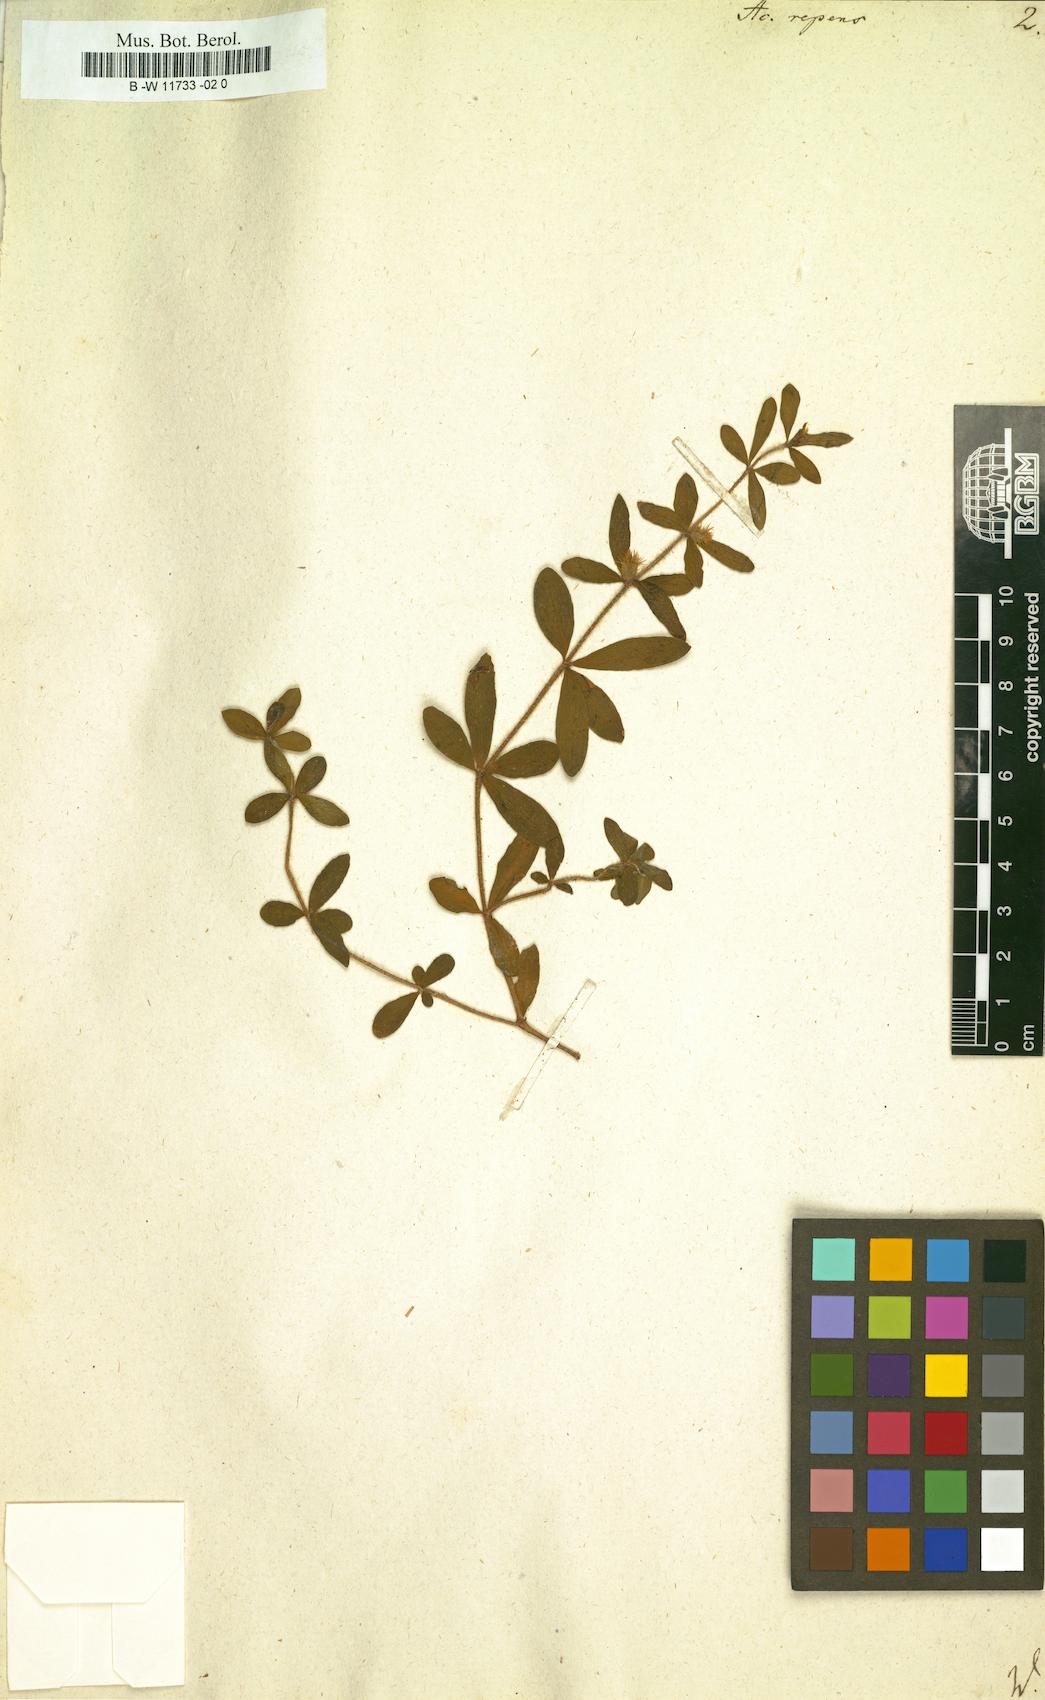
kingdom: Plantae
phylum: Tracheophyta
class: Magnoliopsida
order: Lamiales
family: Acanthaceae
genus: Blepharis
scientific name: Blepharis integrifolia
